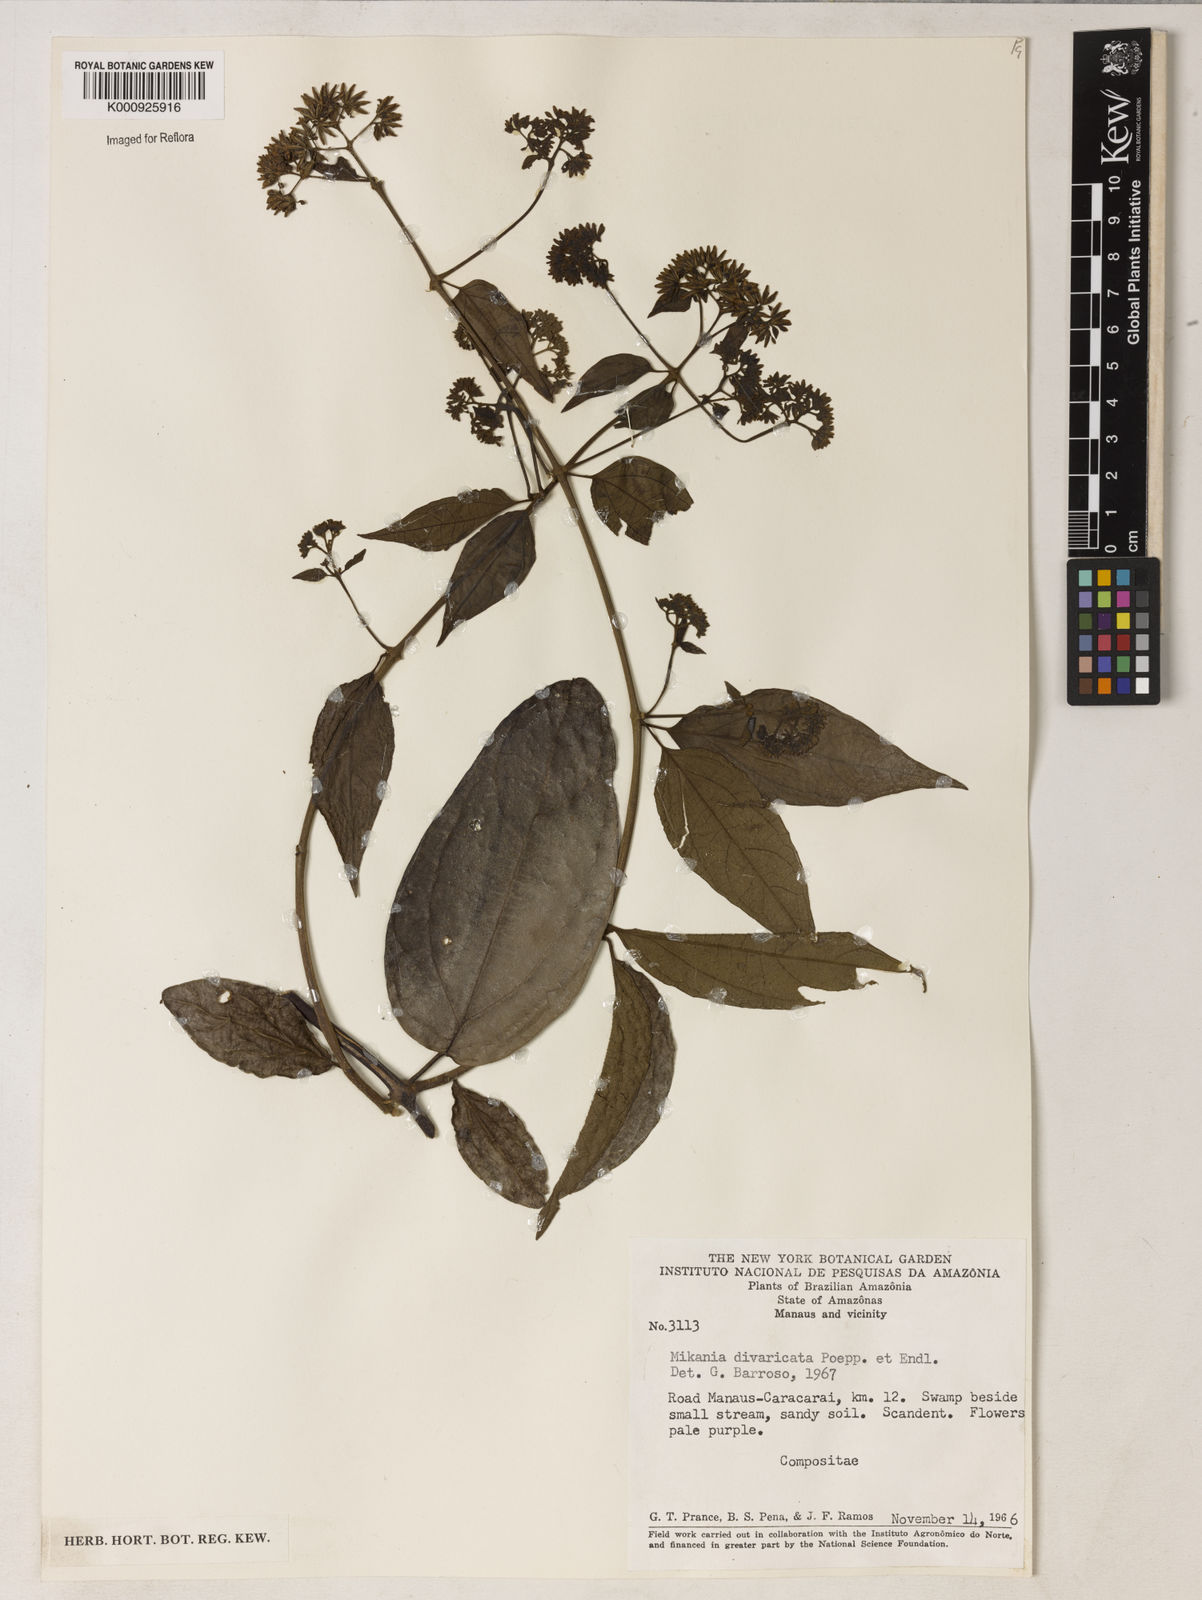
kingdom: Plantae
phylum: Tracheophyta
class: Magnoliopsida
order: Asterales
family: Asteraceae
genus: Mikania
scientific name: Mikania parviflora
